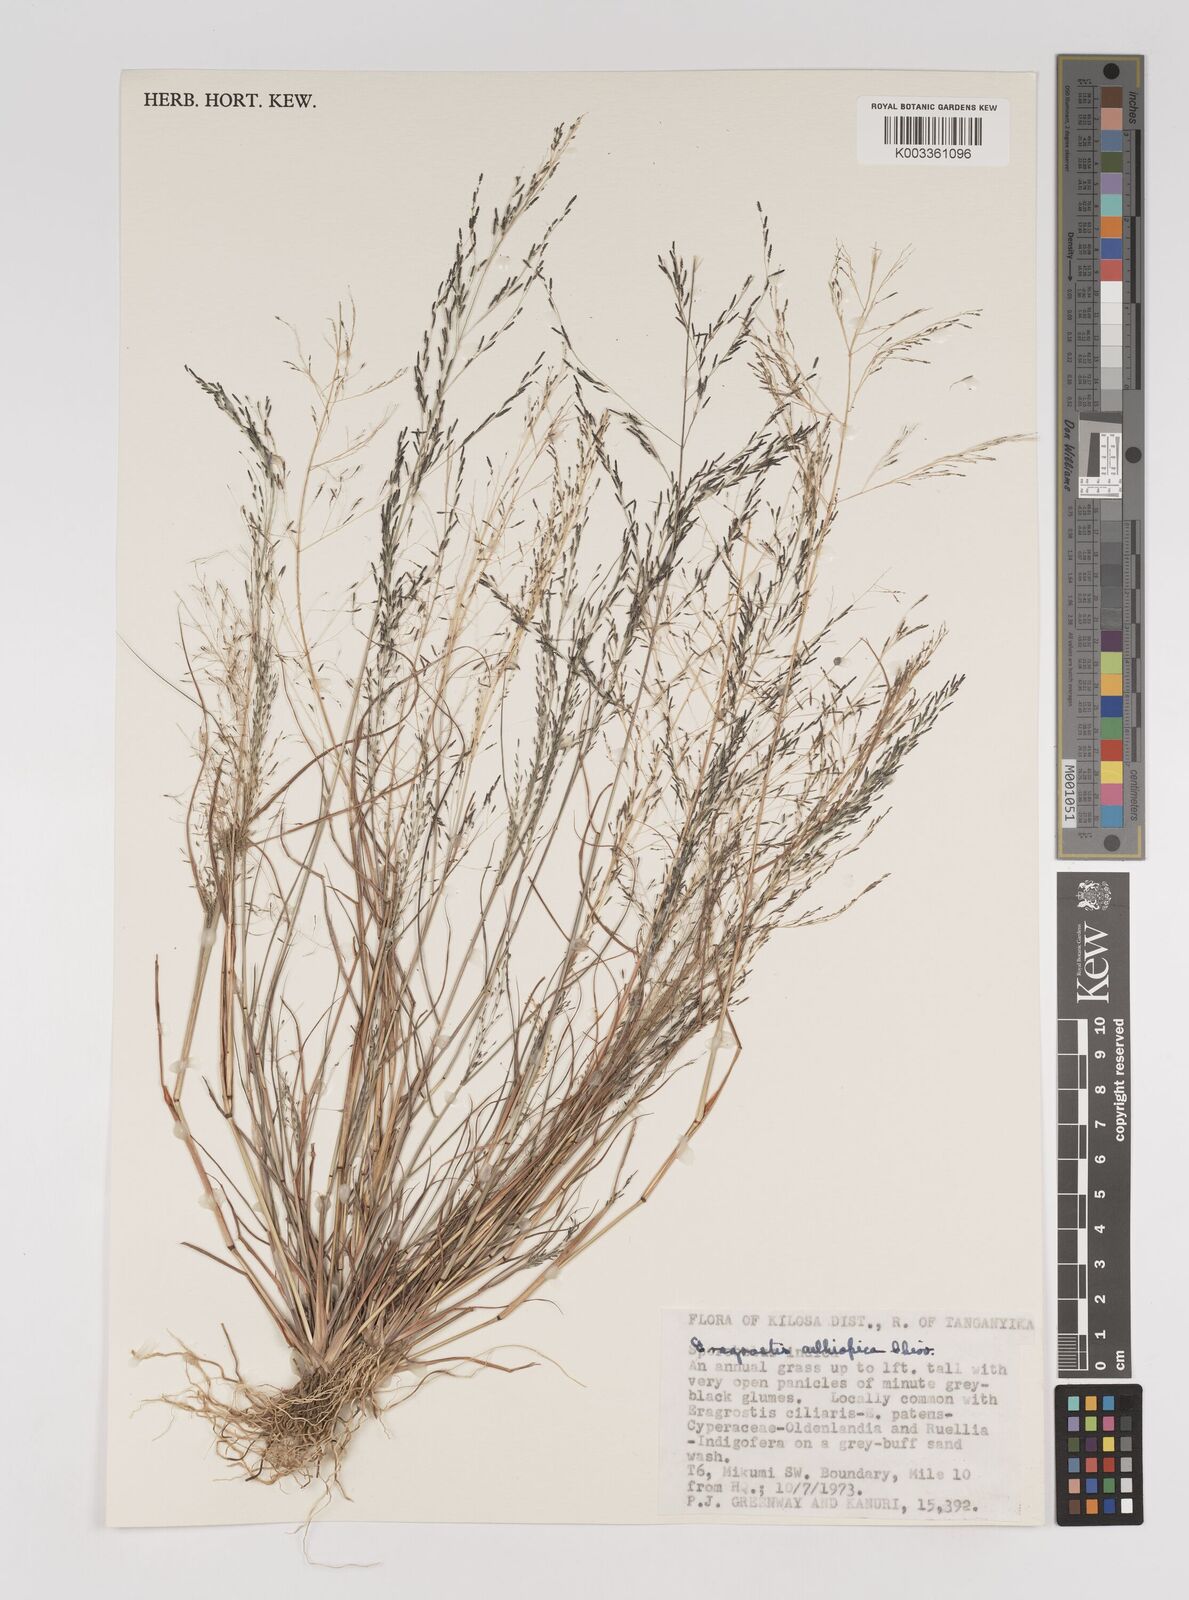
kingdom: Plantae
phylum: Tracheophyta
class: Liliopsida
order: Poales
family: Poaceae
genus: Eragrostis
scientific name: Eragrostis aethiopica
